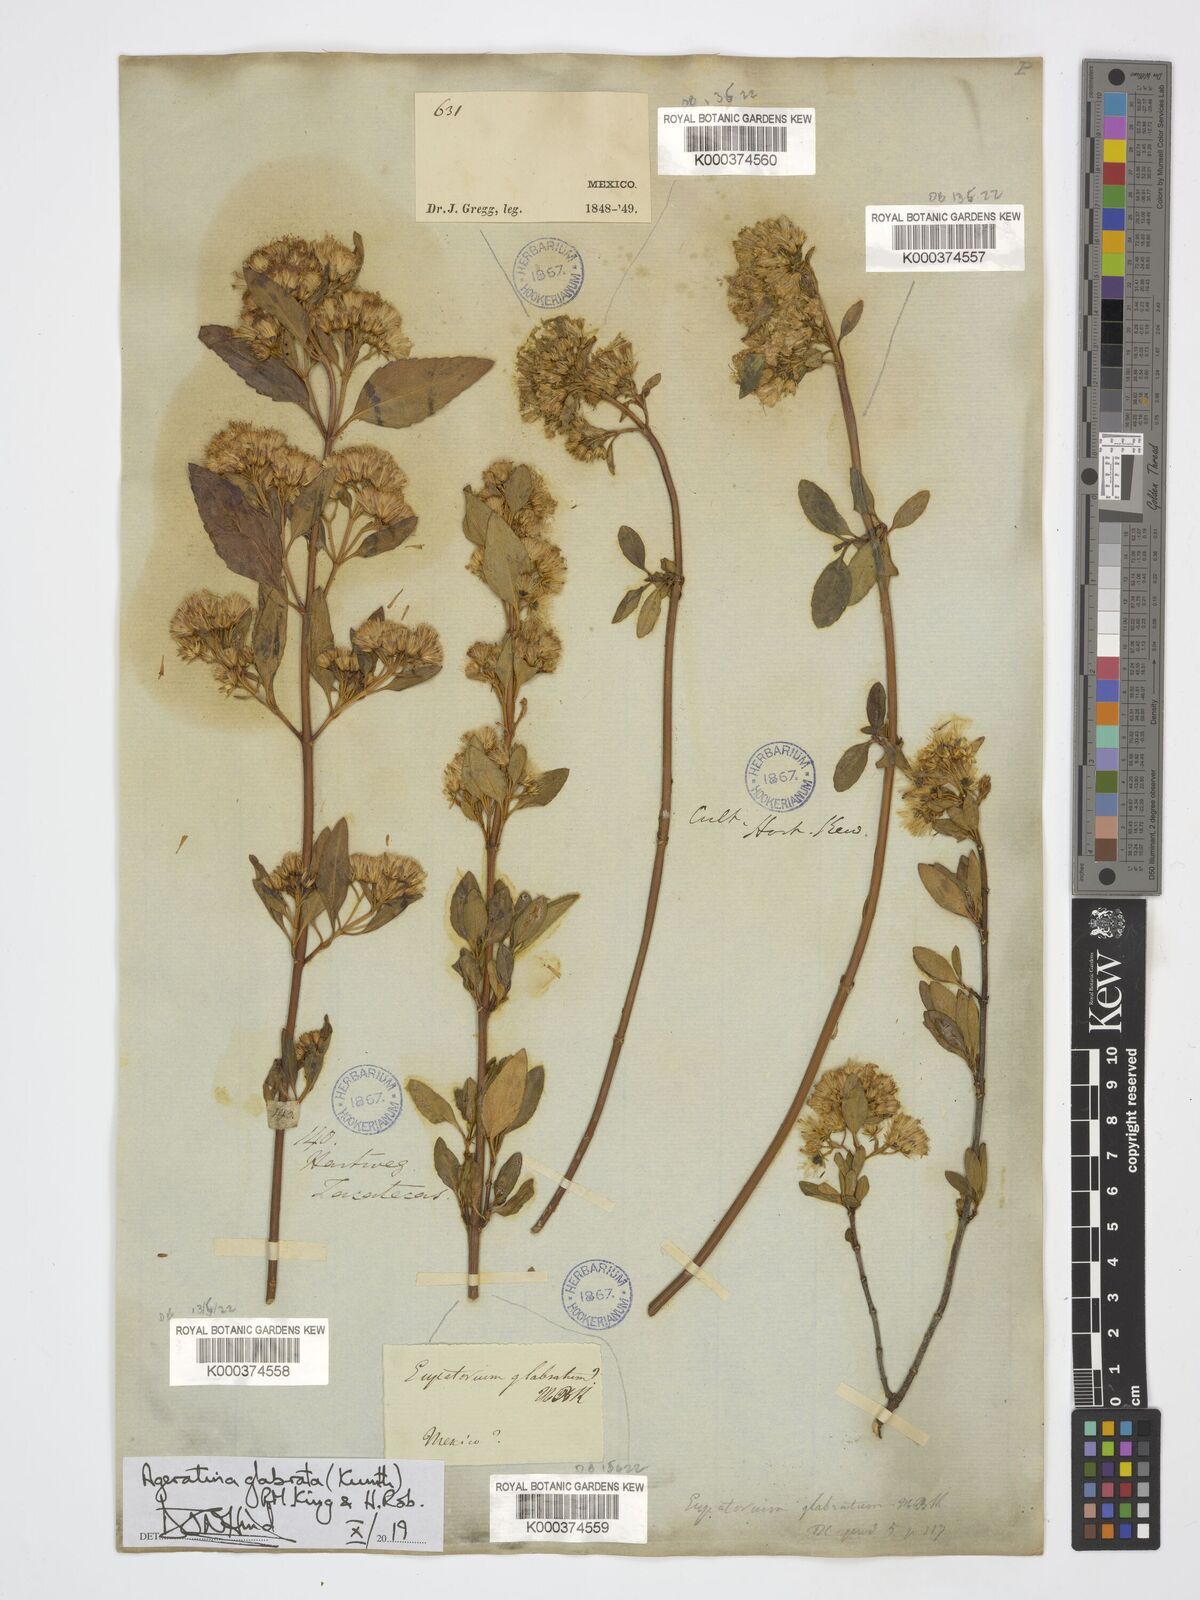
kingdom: Plantae
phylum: Tracheophyta
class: Magnoliopsida
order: Asterales
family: Asteraceae
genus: Ageratina
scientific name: Ageratina glabrata
